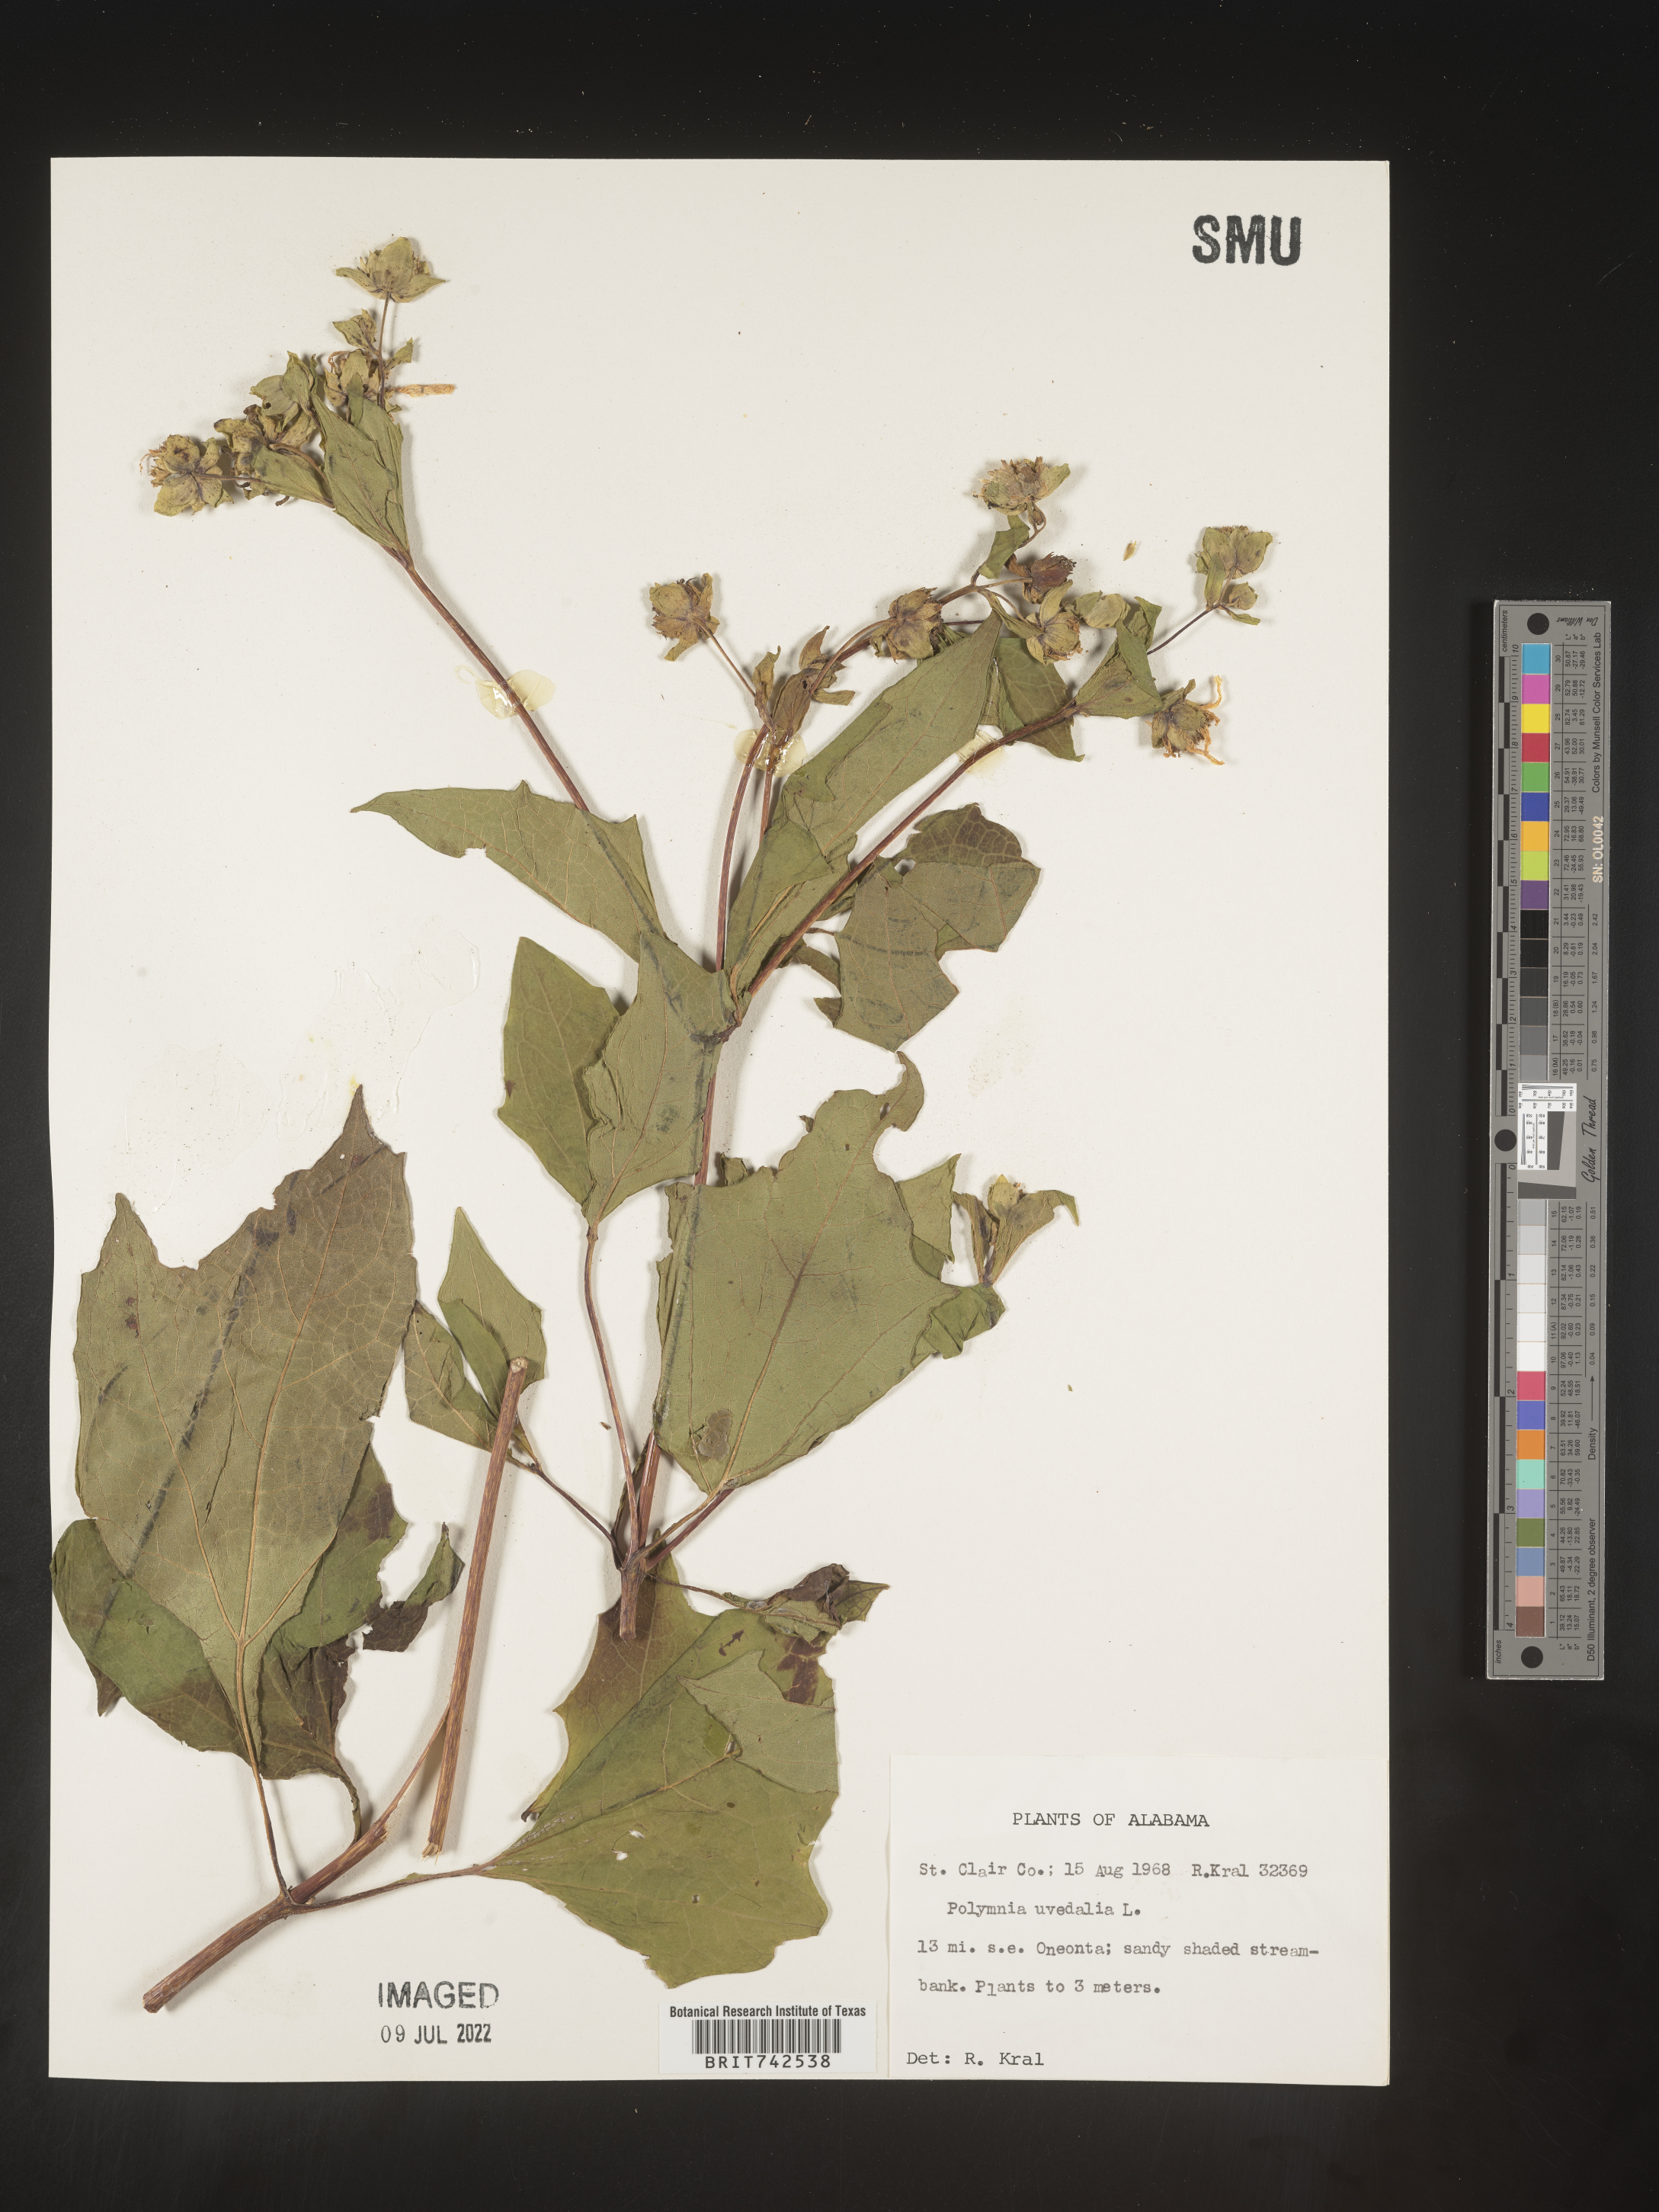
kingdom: Plantae
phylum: Tracheophyta
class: Magnoliopsida
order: Asterales
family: Asteraceae
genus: Smallanthus
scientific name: Smallanthus uvedalia
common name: Bear's-foot
